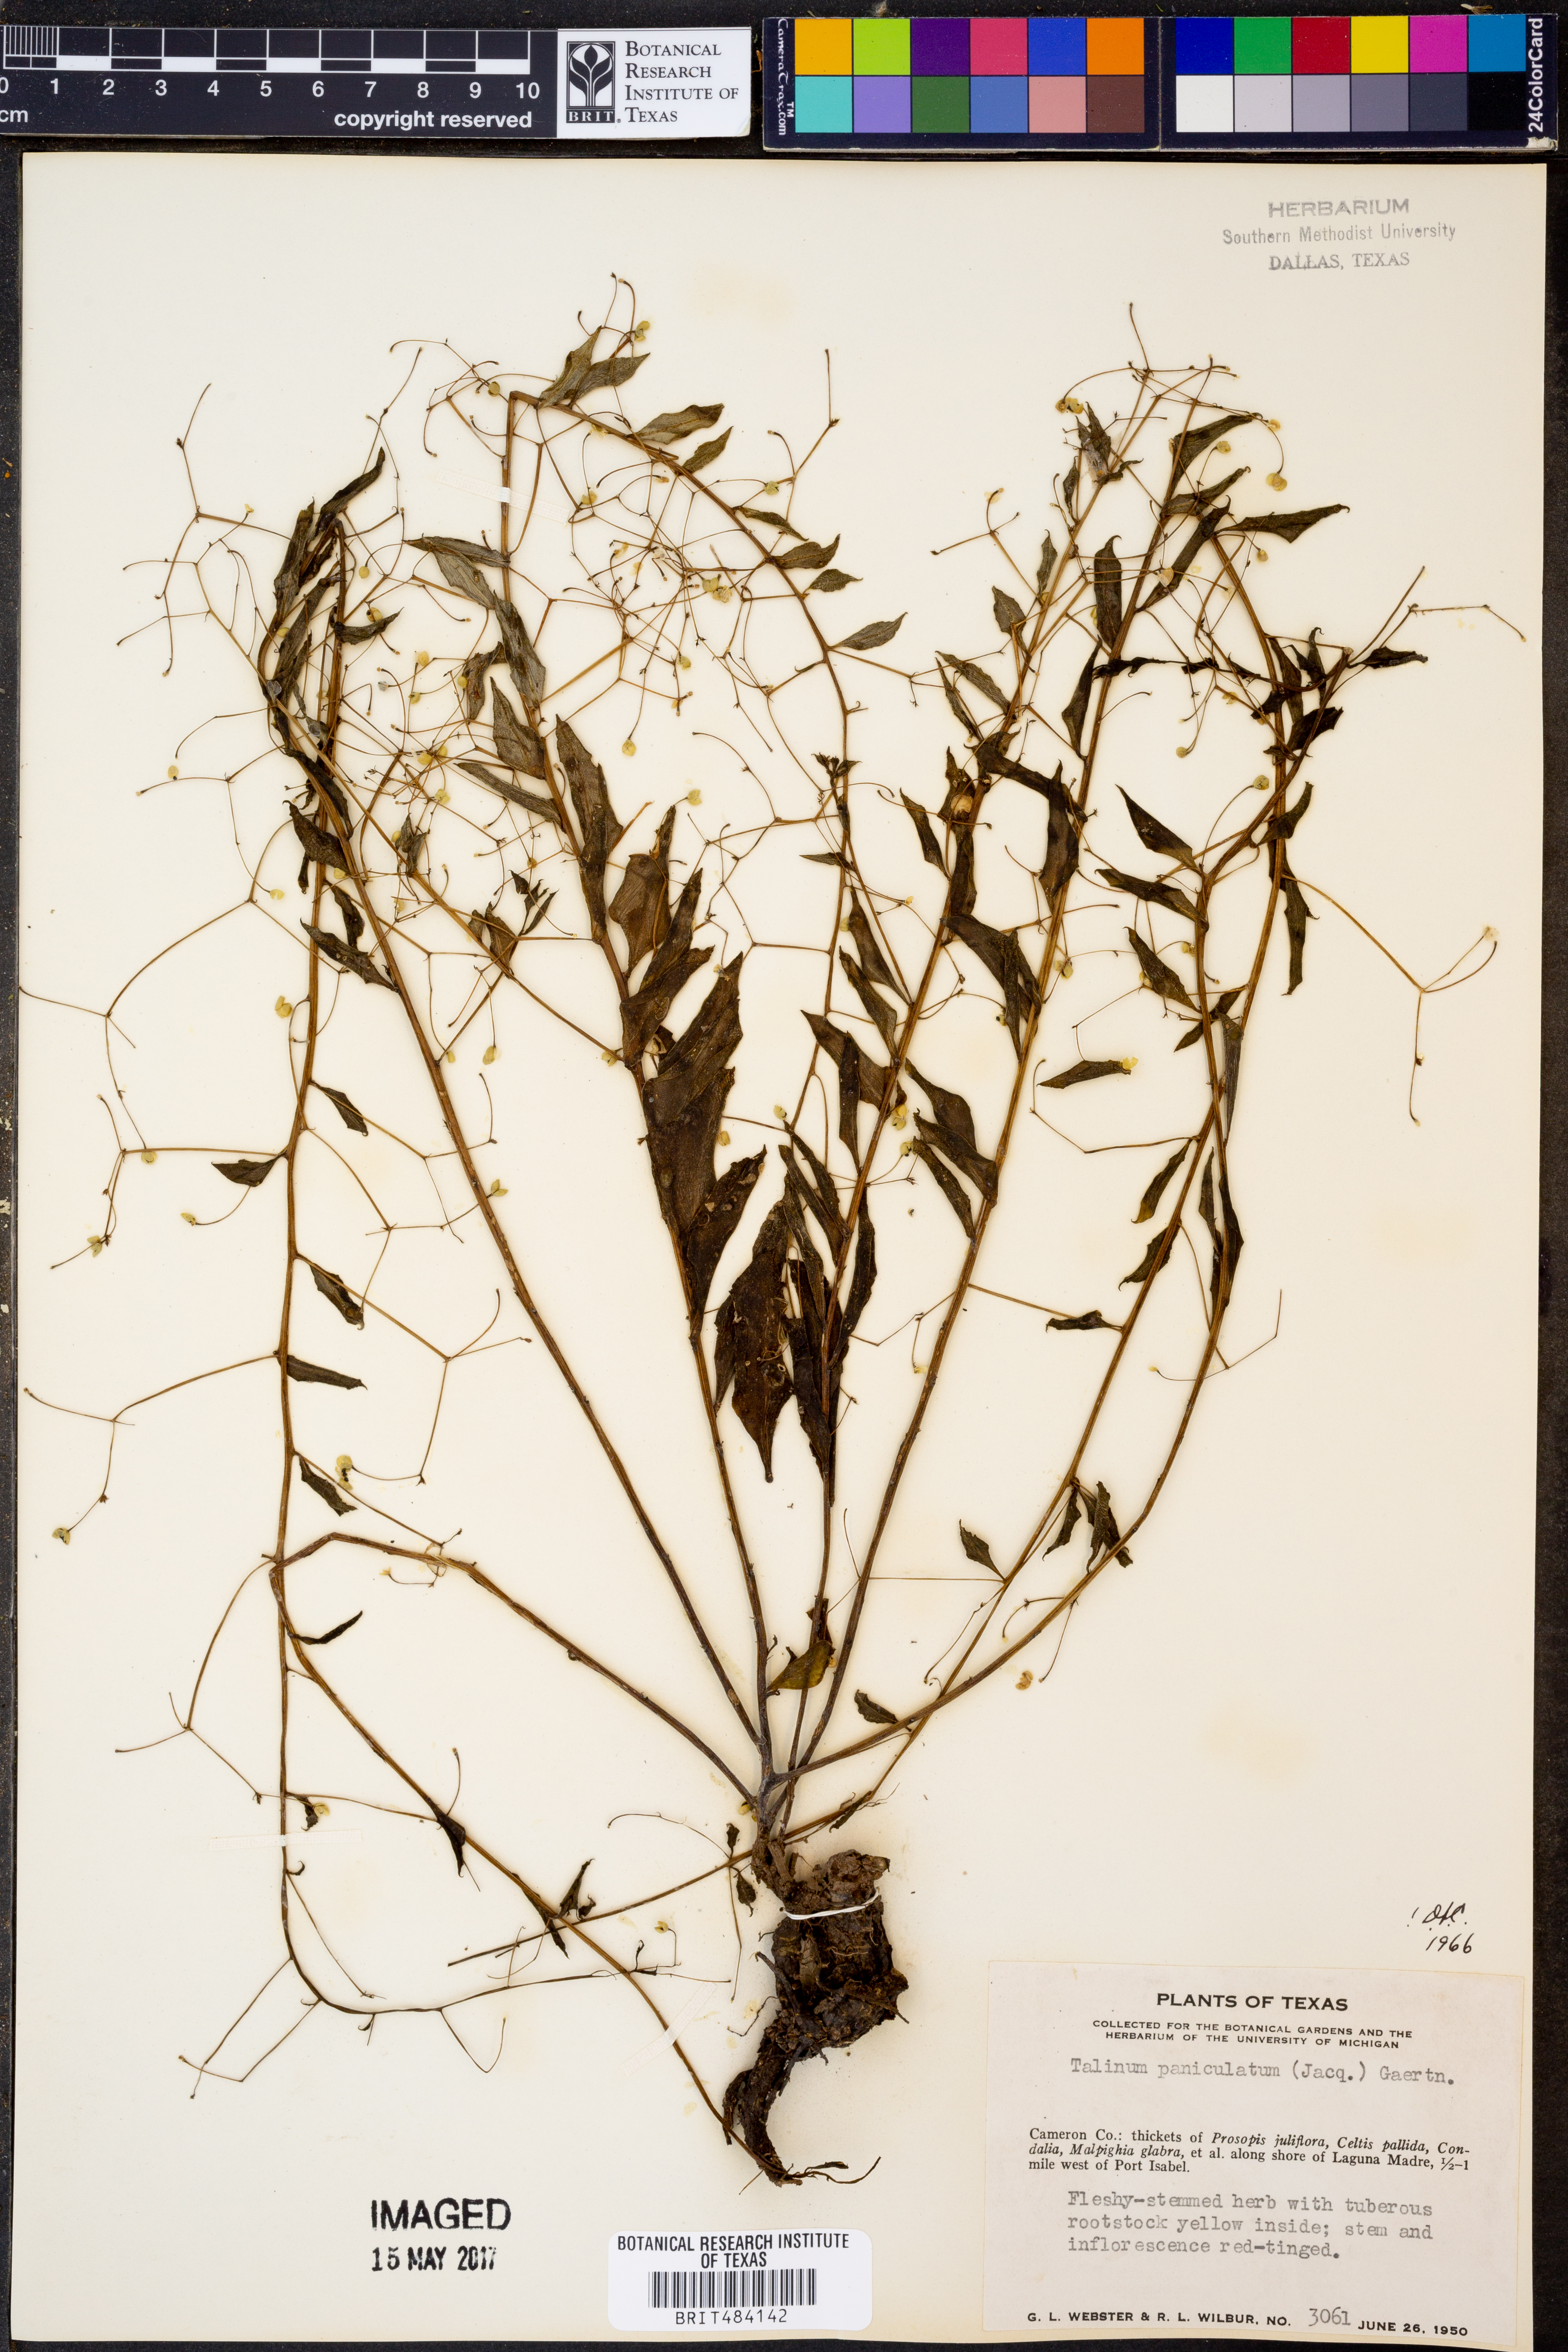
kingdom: Plantae
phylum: Tracheophyta
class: Magnoliopsida
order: Caryophyllales
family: Talinaceae
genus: Talinum
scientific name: Talinum paniculatum
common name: Jewels of opar
